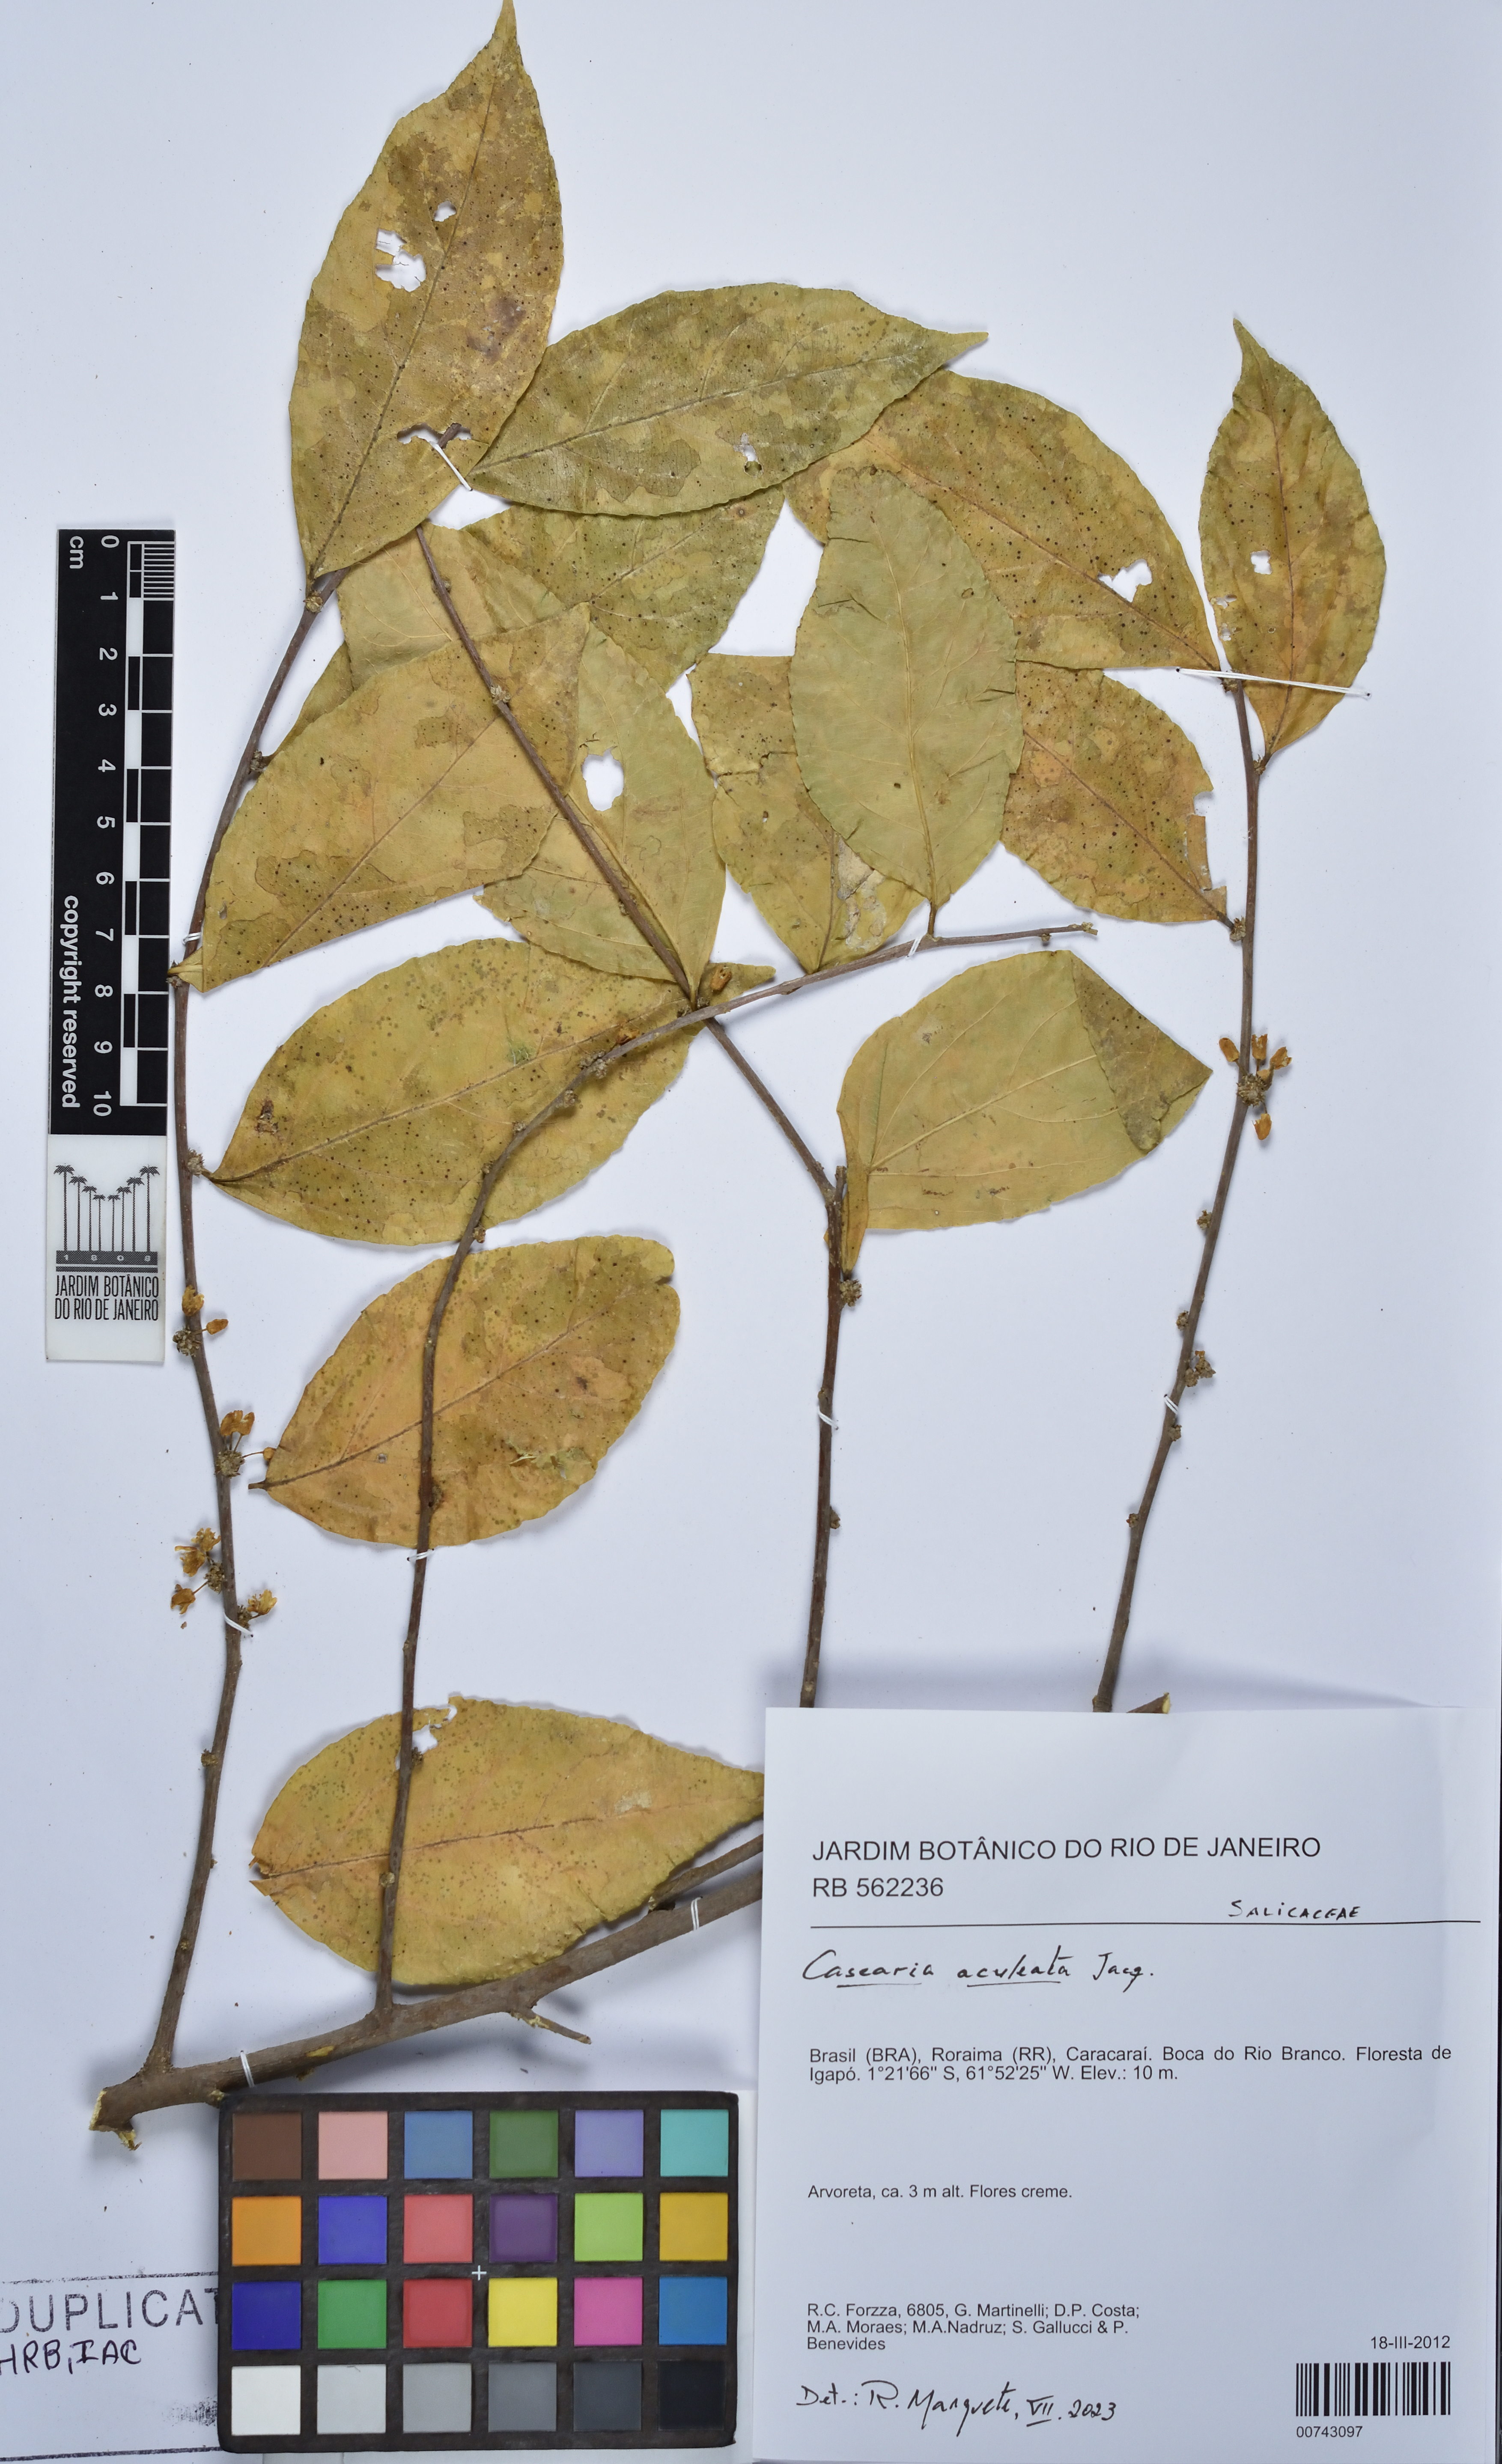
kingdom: Plantae
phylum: Tracheophyta
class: Magnoliopsida
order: Malpighiales
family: Salicaceae
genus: Casearia
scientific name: Casearia aculeata
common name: Cockspur
